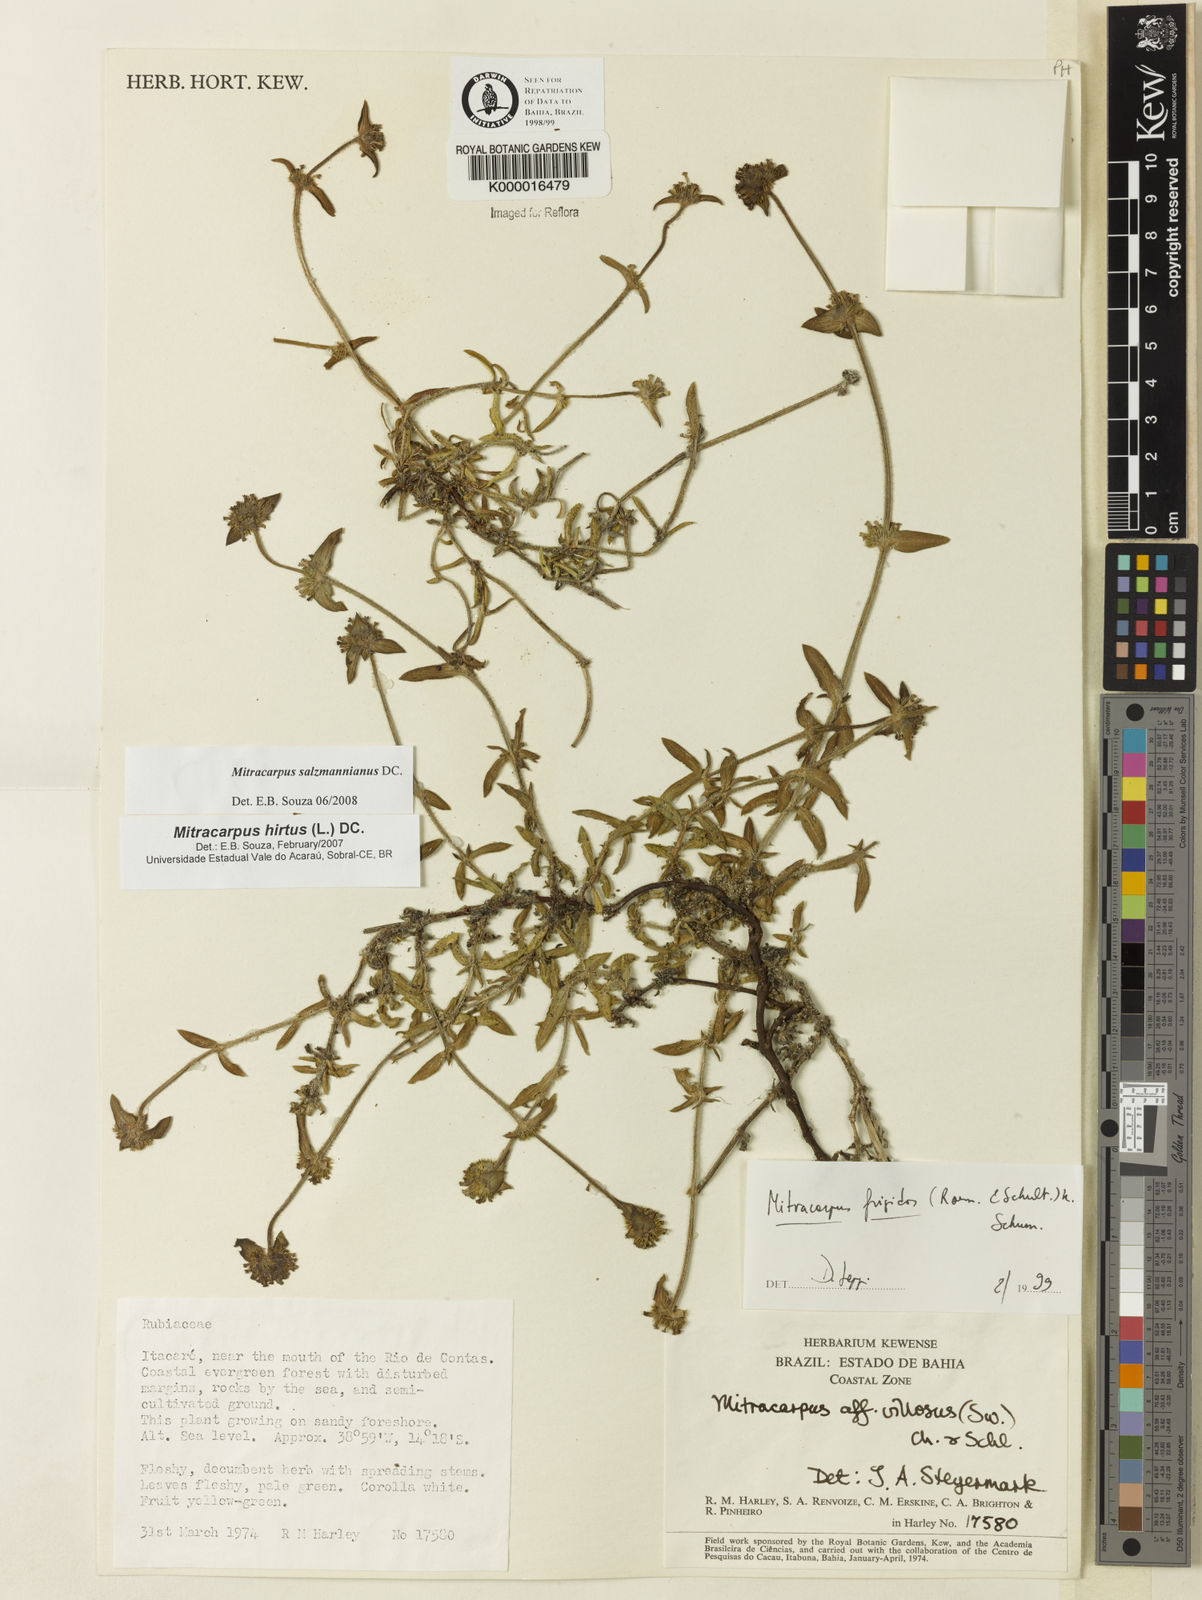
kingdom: Plantae
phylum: Tracheophyta
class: Magnoliopsida
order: Gentianales
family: Rubiaceae
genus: Mitracarpus
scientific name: Mitracarpus salzmannianus
